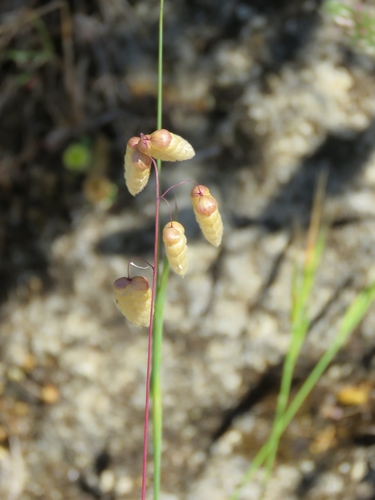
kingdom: Plantae
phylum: Tracheophyta
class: Liliopsida
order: Poales
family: Poaceae
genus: Briza
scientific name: Briza maxima
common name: Big quakinggrass
